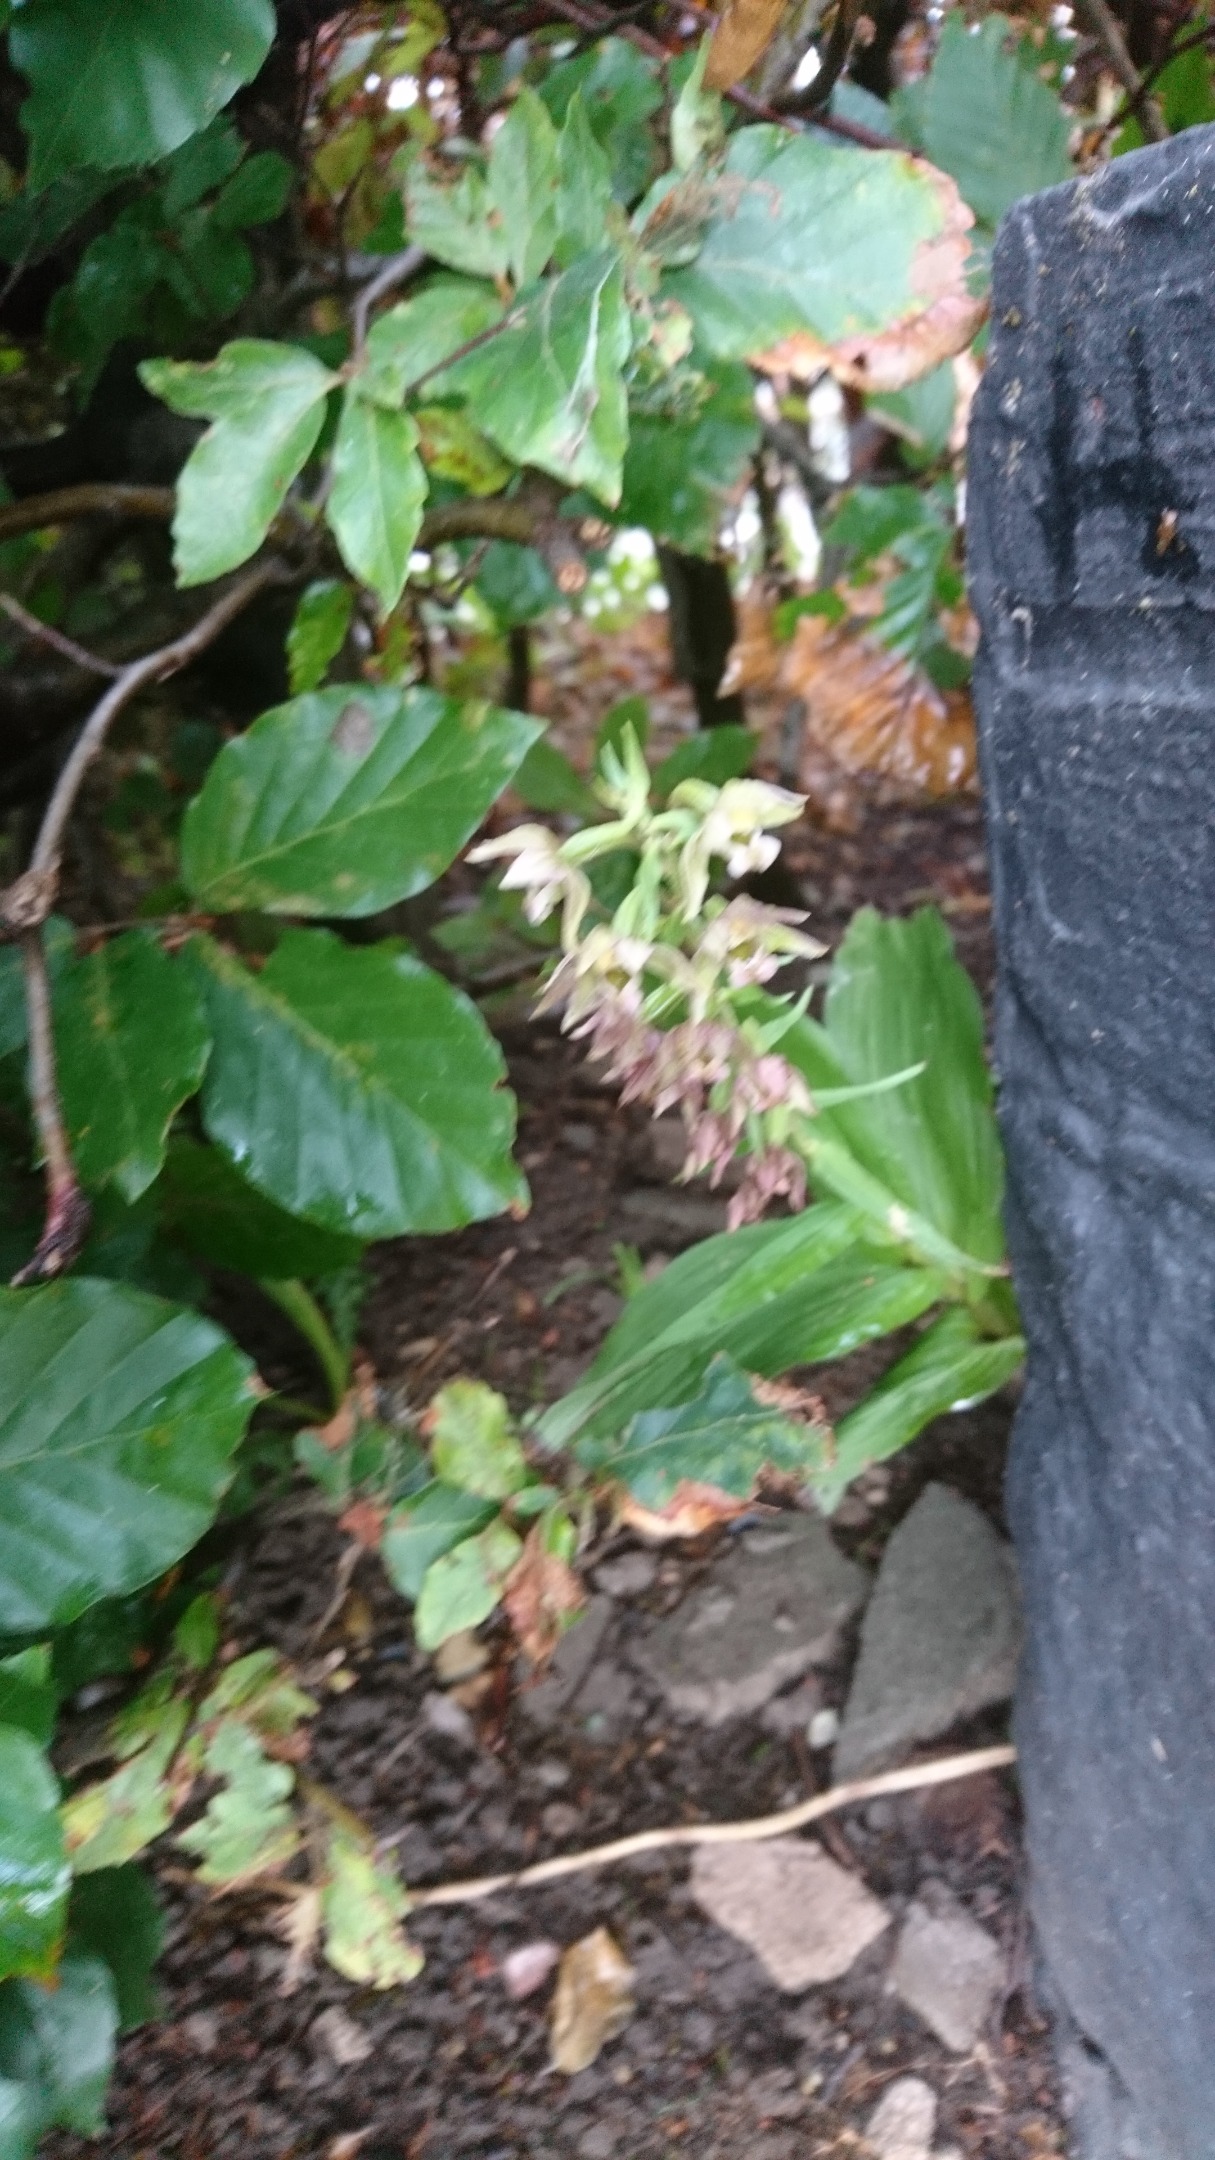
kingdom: Plantae
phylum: Tracheophyta
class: Liliopsida
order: Asparagales
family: Orchidaceae
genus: Epipactis
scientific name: Epipactis helleborine
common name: Skov-hullæbe
